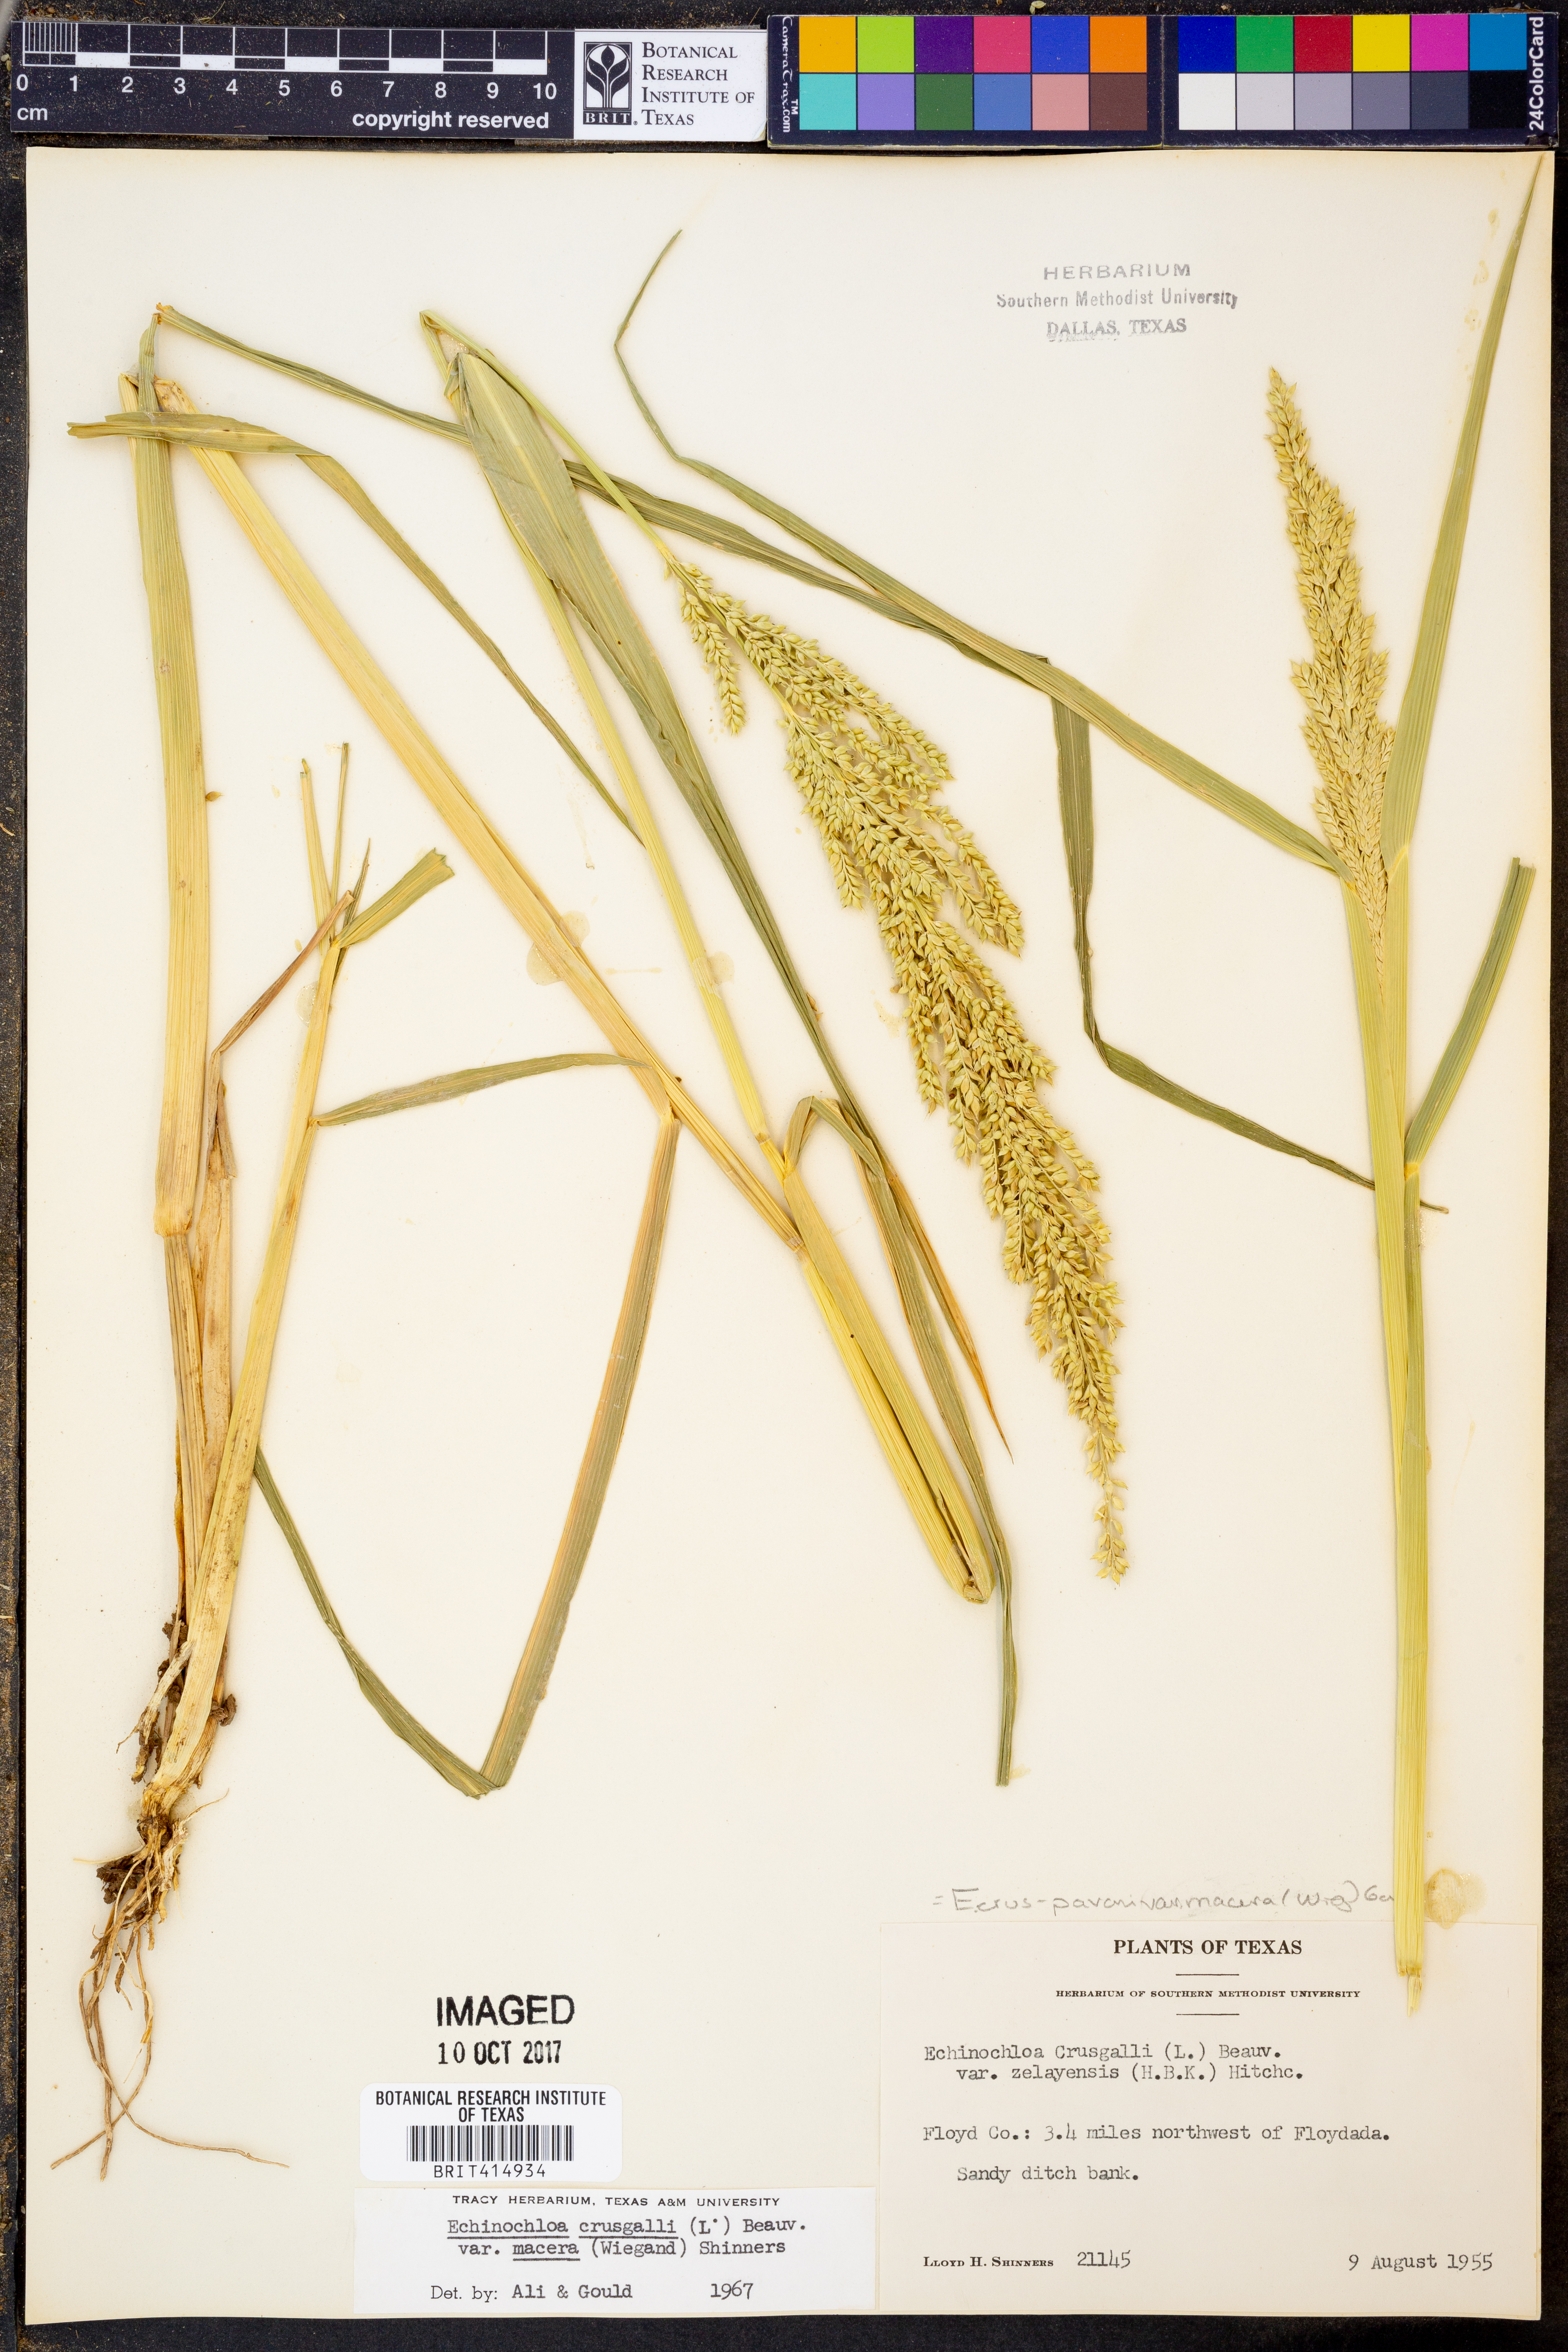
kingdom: Plantae
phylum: Tracheophyta
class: Liliopsida
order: Poales
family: Poaceae
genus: Echinochloa
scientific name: Echinochloa crus-pavonis
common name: Gulf cockspur grass
